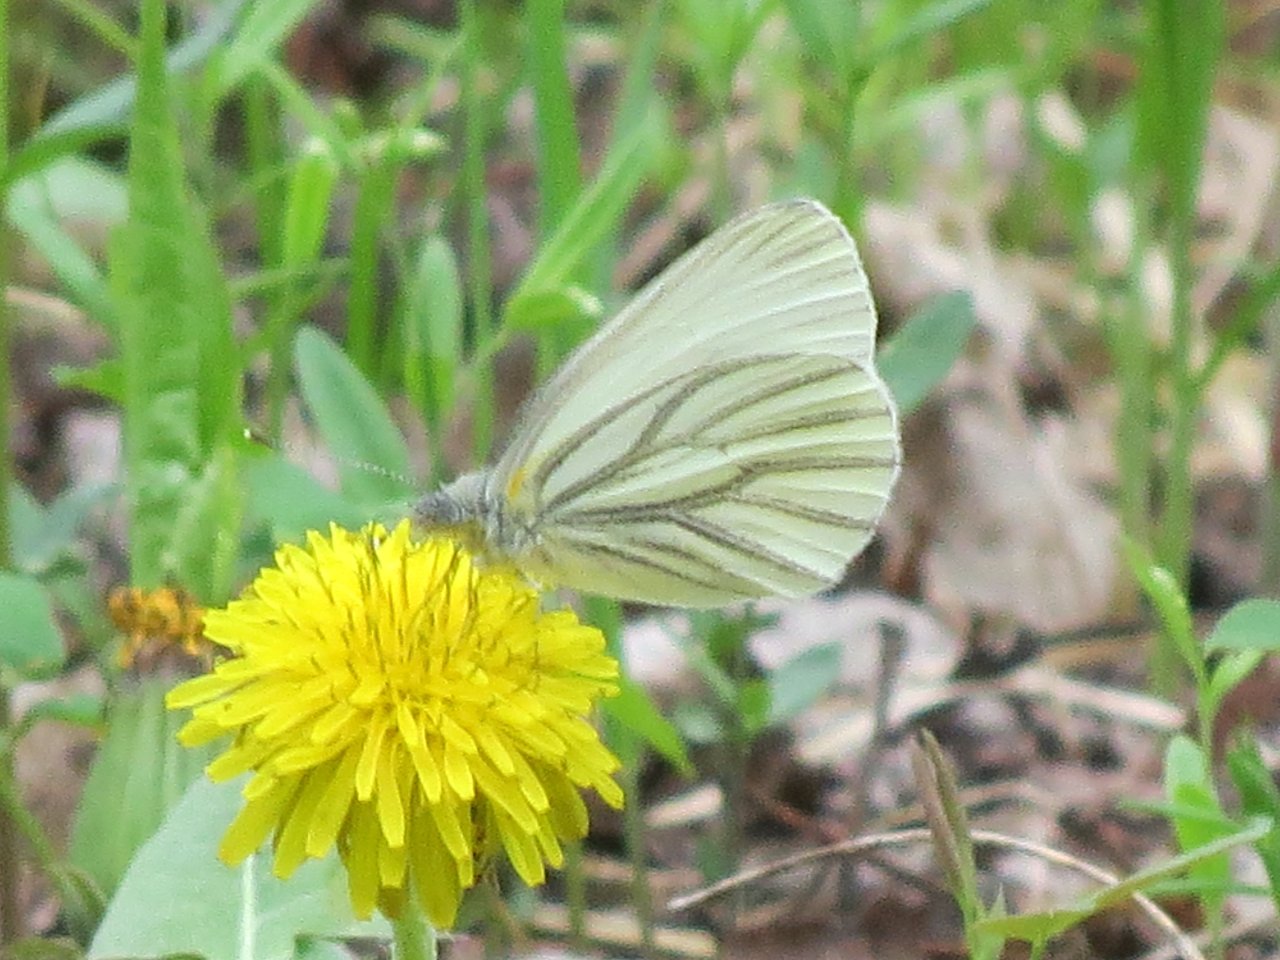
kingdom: Animalia
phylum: Arthropoda
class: Insecta
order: Lepidoptera
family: Pieridae
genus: Pieris
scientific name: Pieris oleracea
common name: Mustard White
